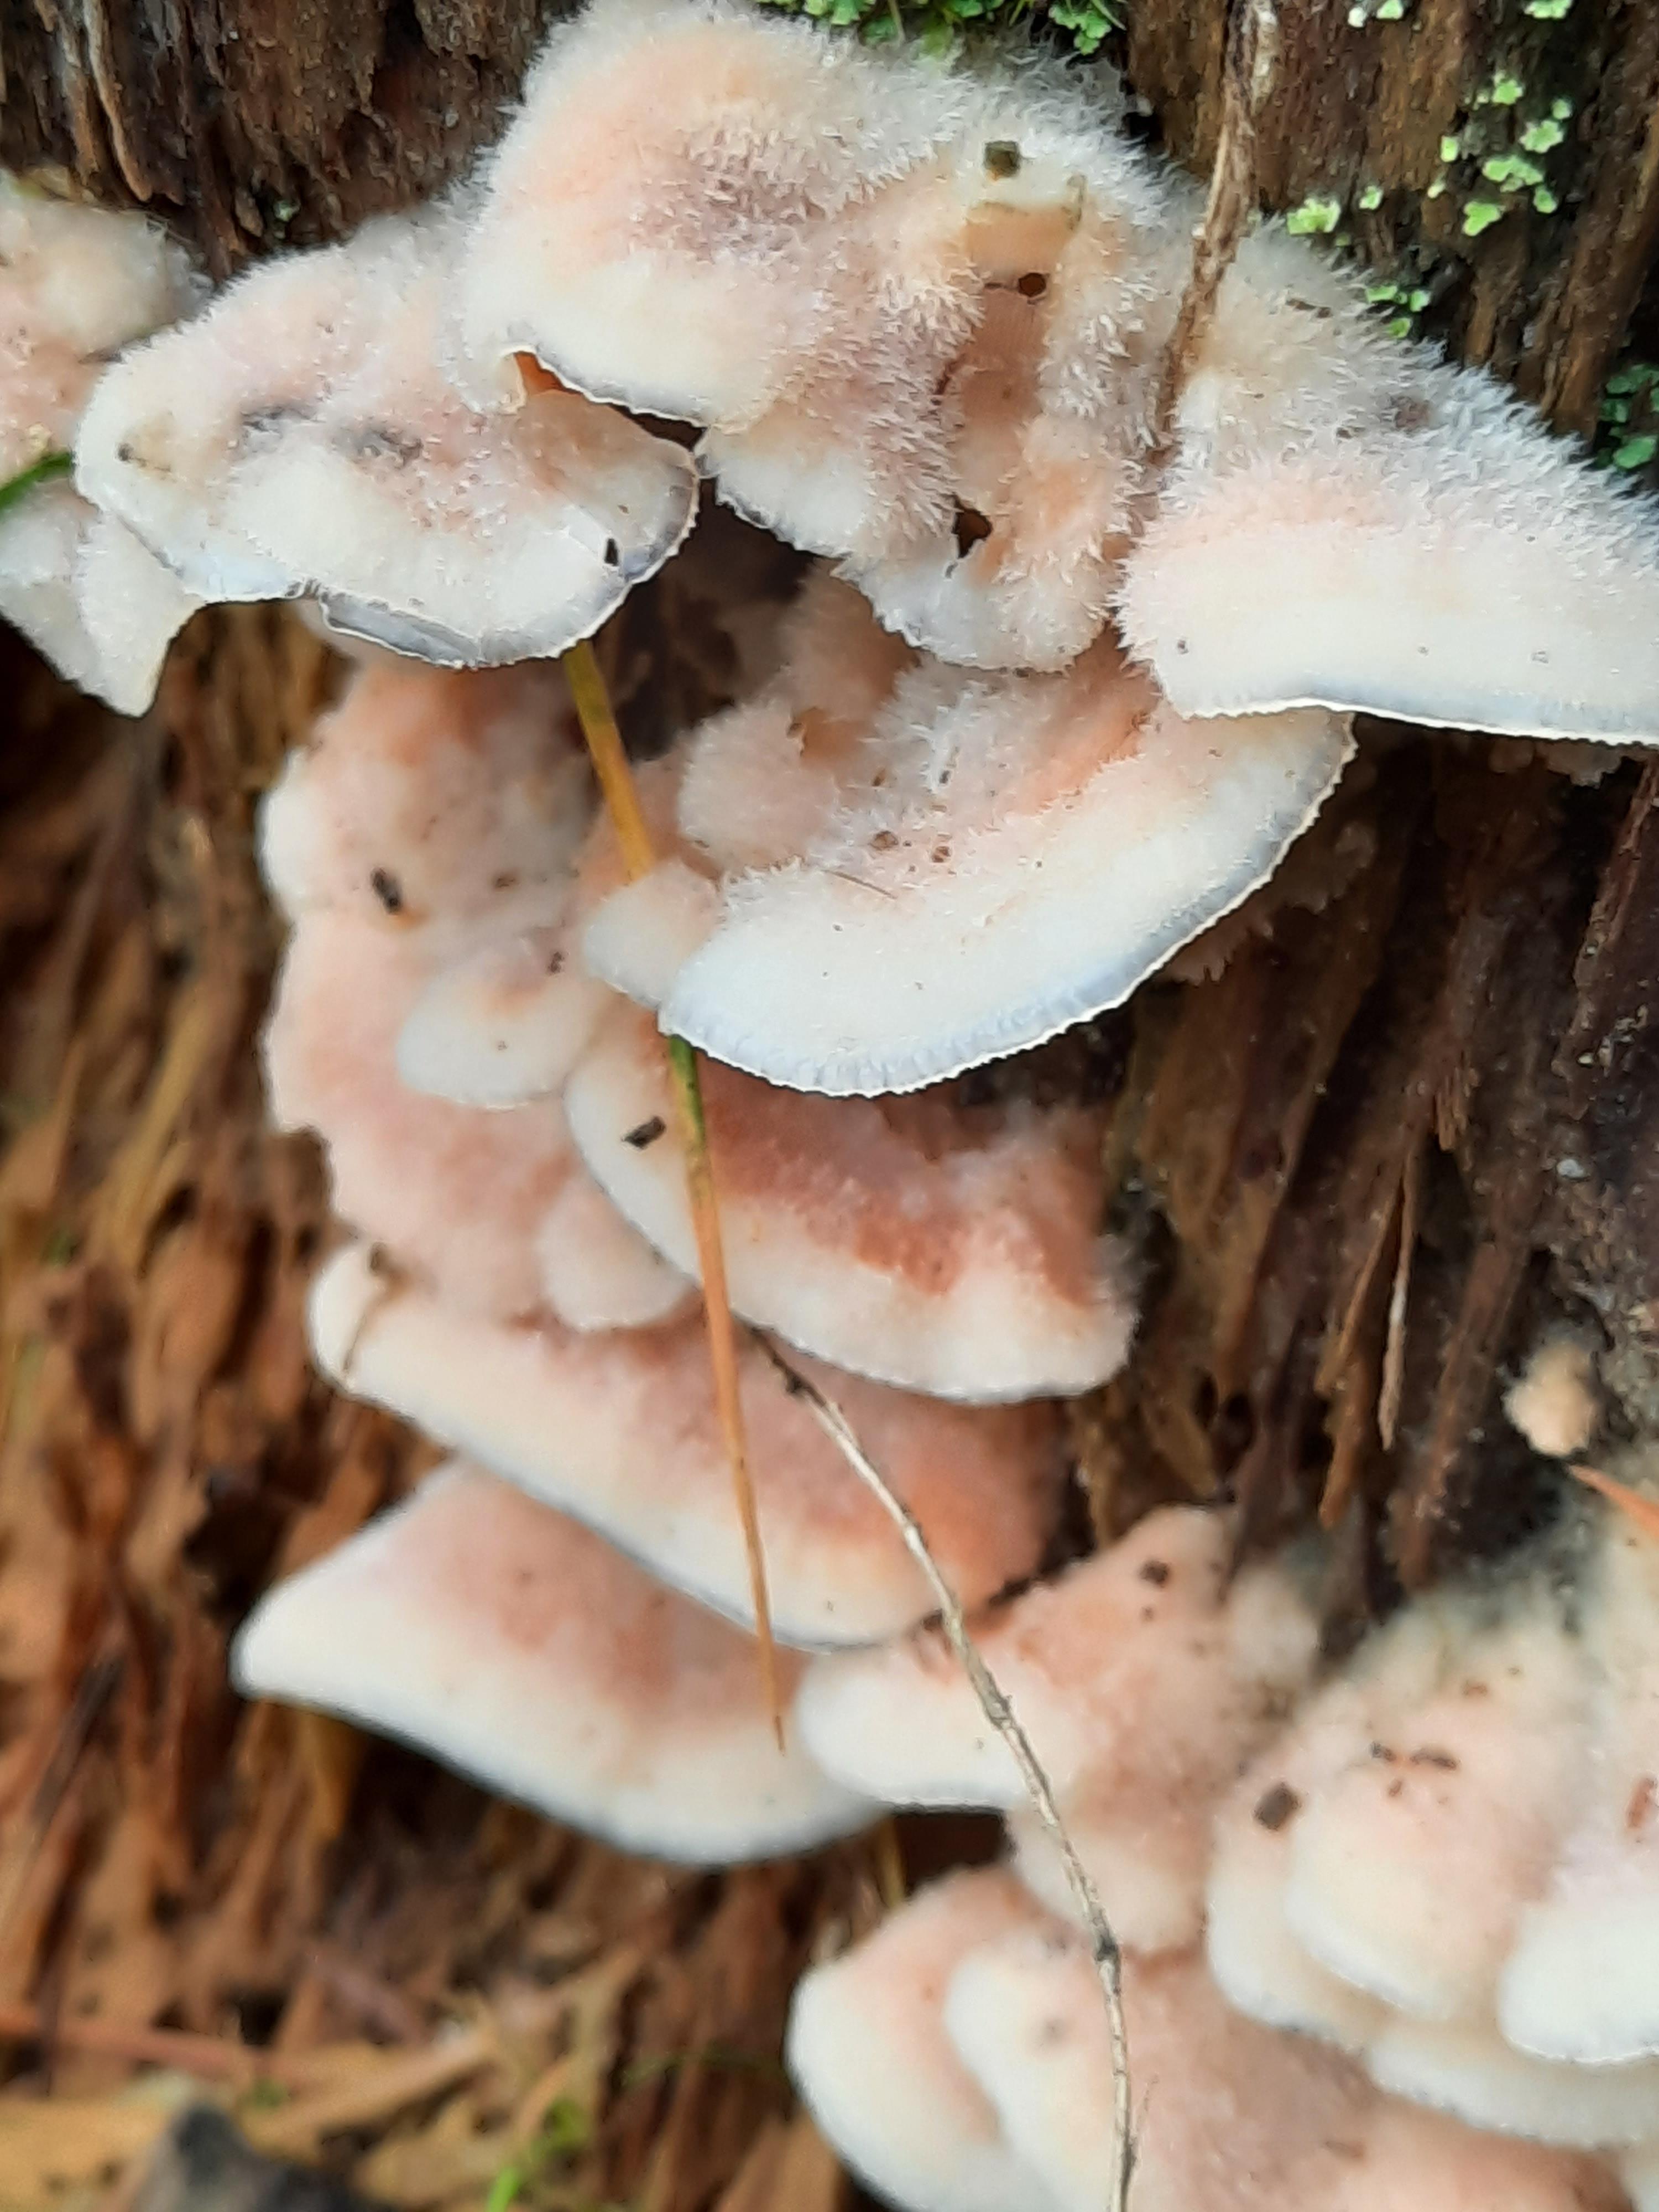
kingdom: Fungi
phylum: Basidiomycota
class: Agaricomycetes
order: Polyporales
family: Meruliaceae
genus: Phlebia
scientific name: Phlebia tremellosa
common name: bævrende åresvamp
